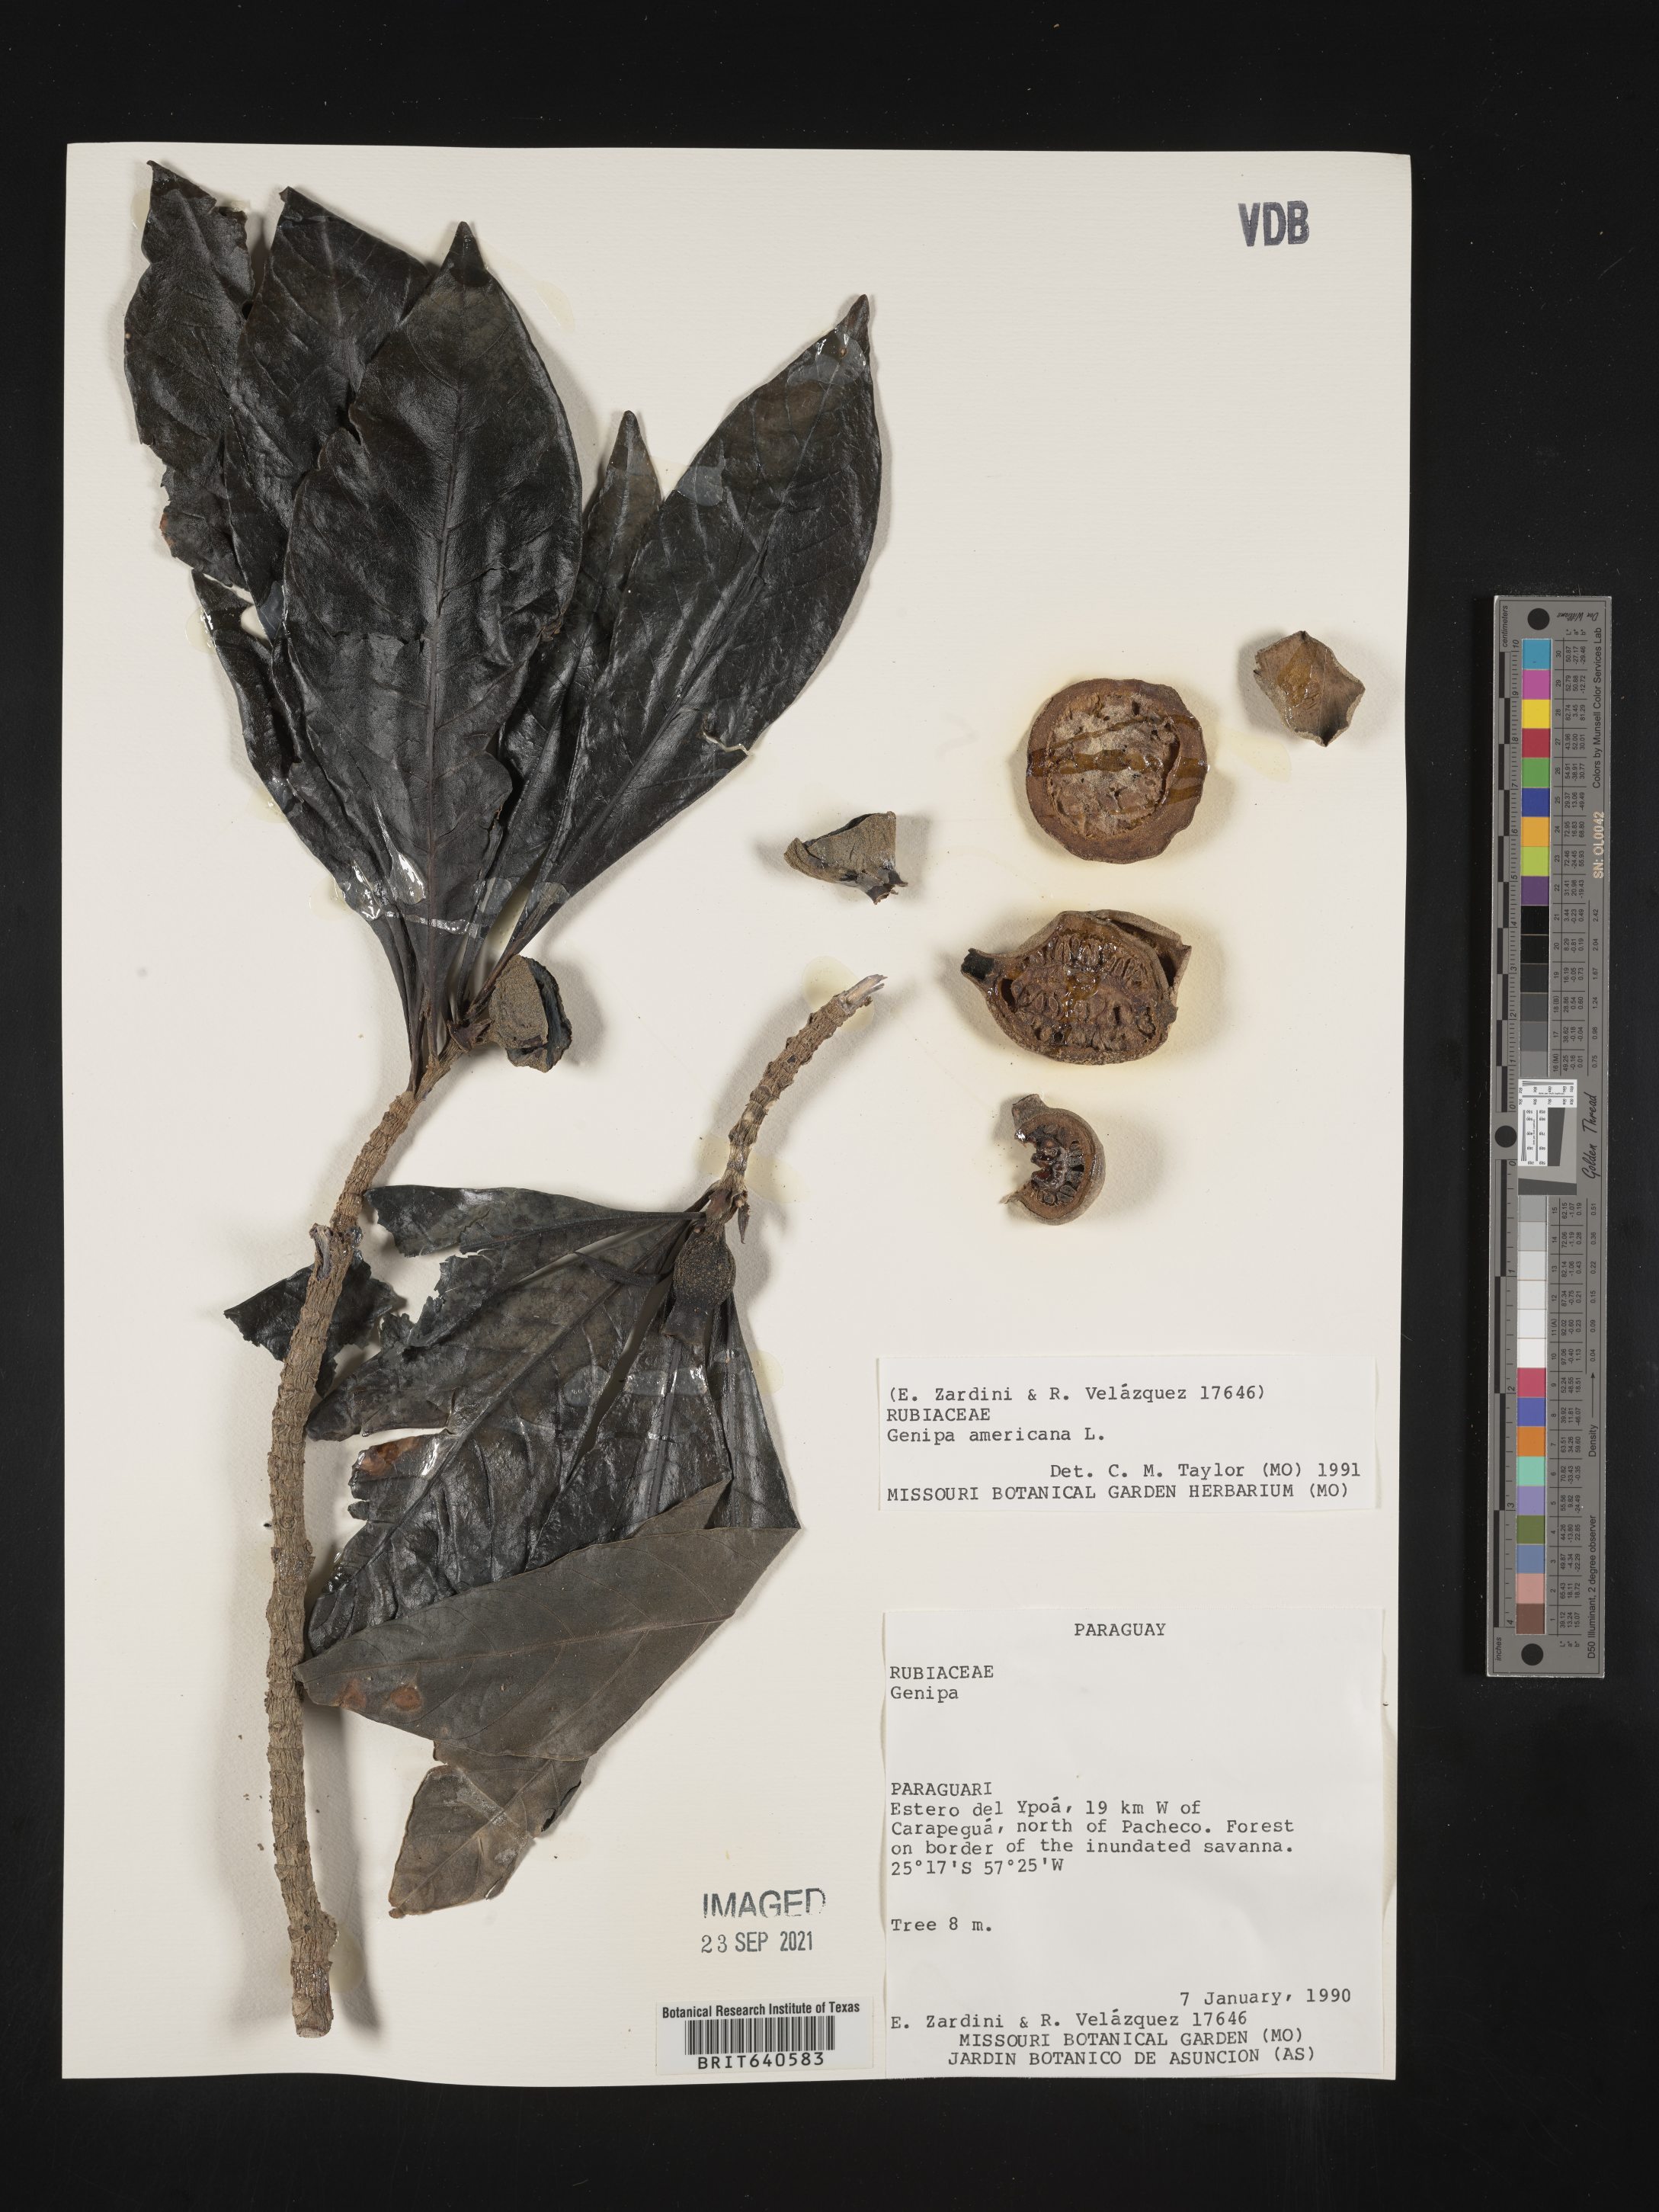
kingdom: Plantae
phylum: Tracheophyta
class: Magnoliopsida
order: Gentianales
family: Rubiaceae
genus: Genipa
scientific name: Genipa
